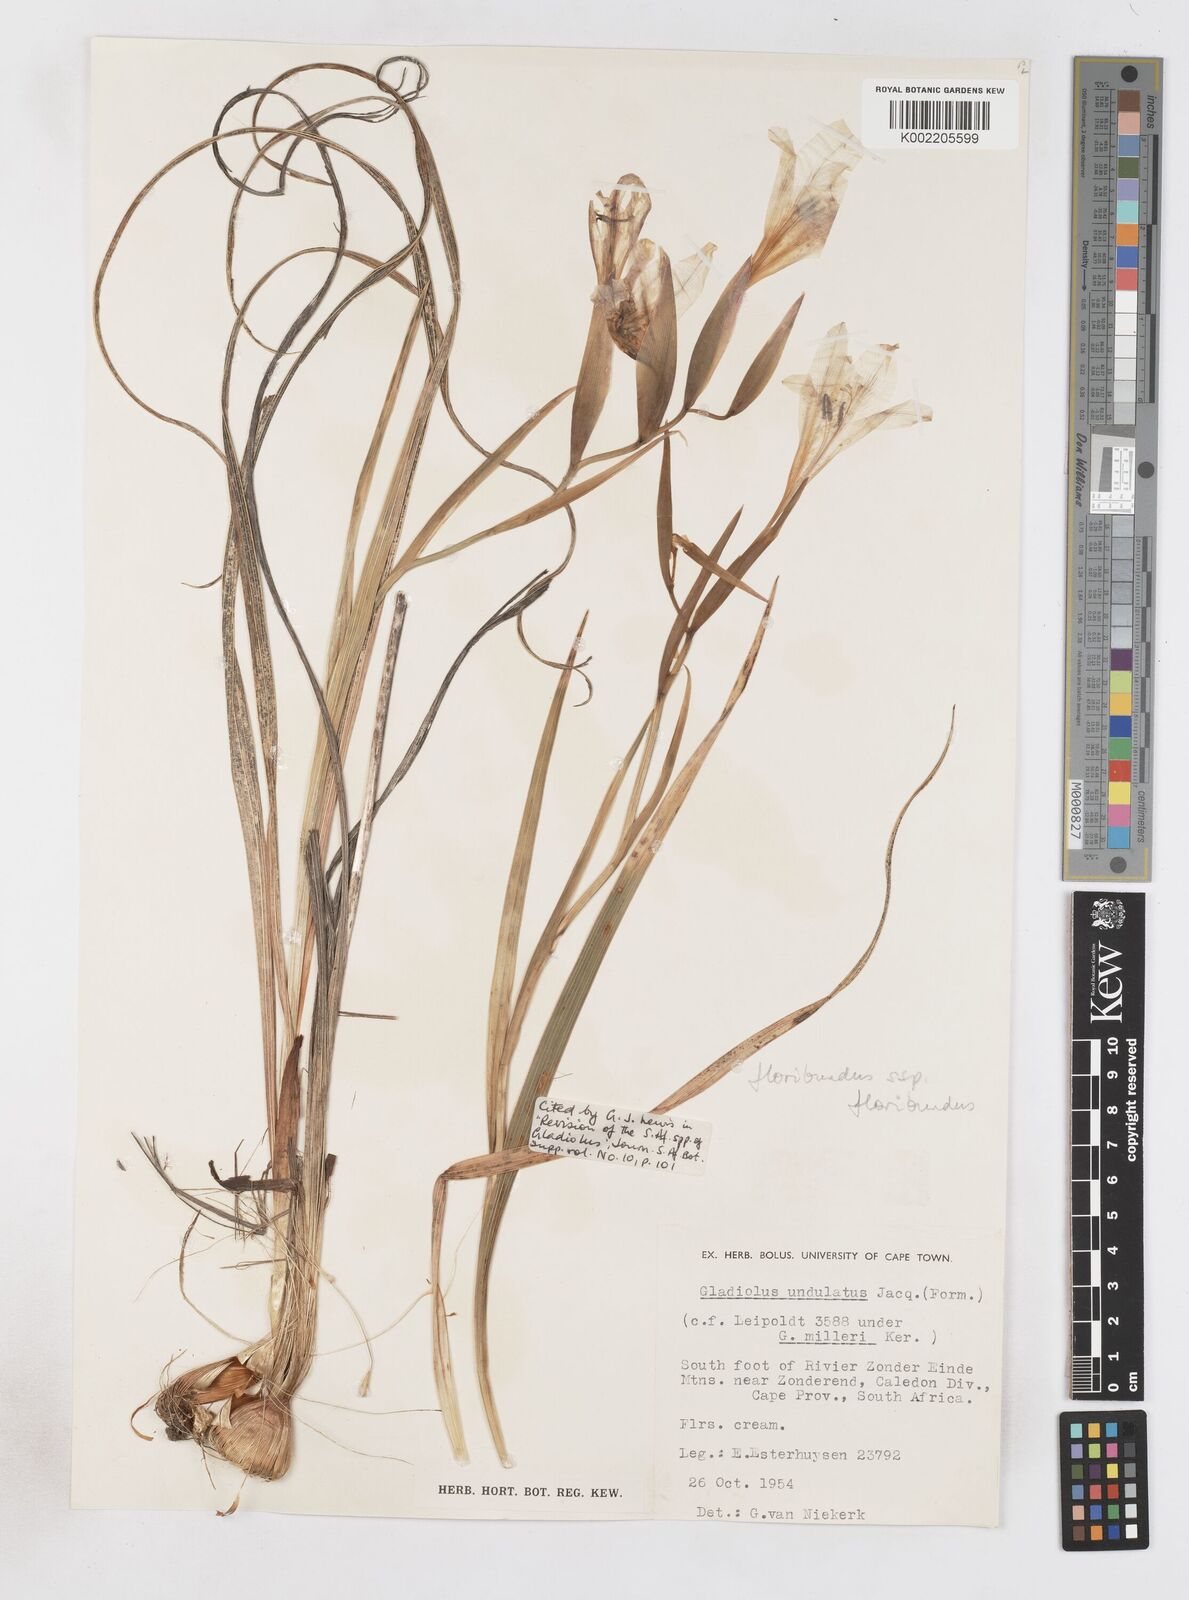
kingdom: Plantae
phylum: Tracheophyta
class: Liliopsida
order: Asparagales
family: Iridaceae
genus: Gladiolus
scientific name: Gladiolus floribundus
